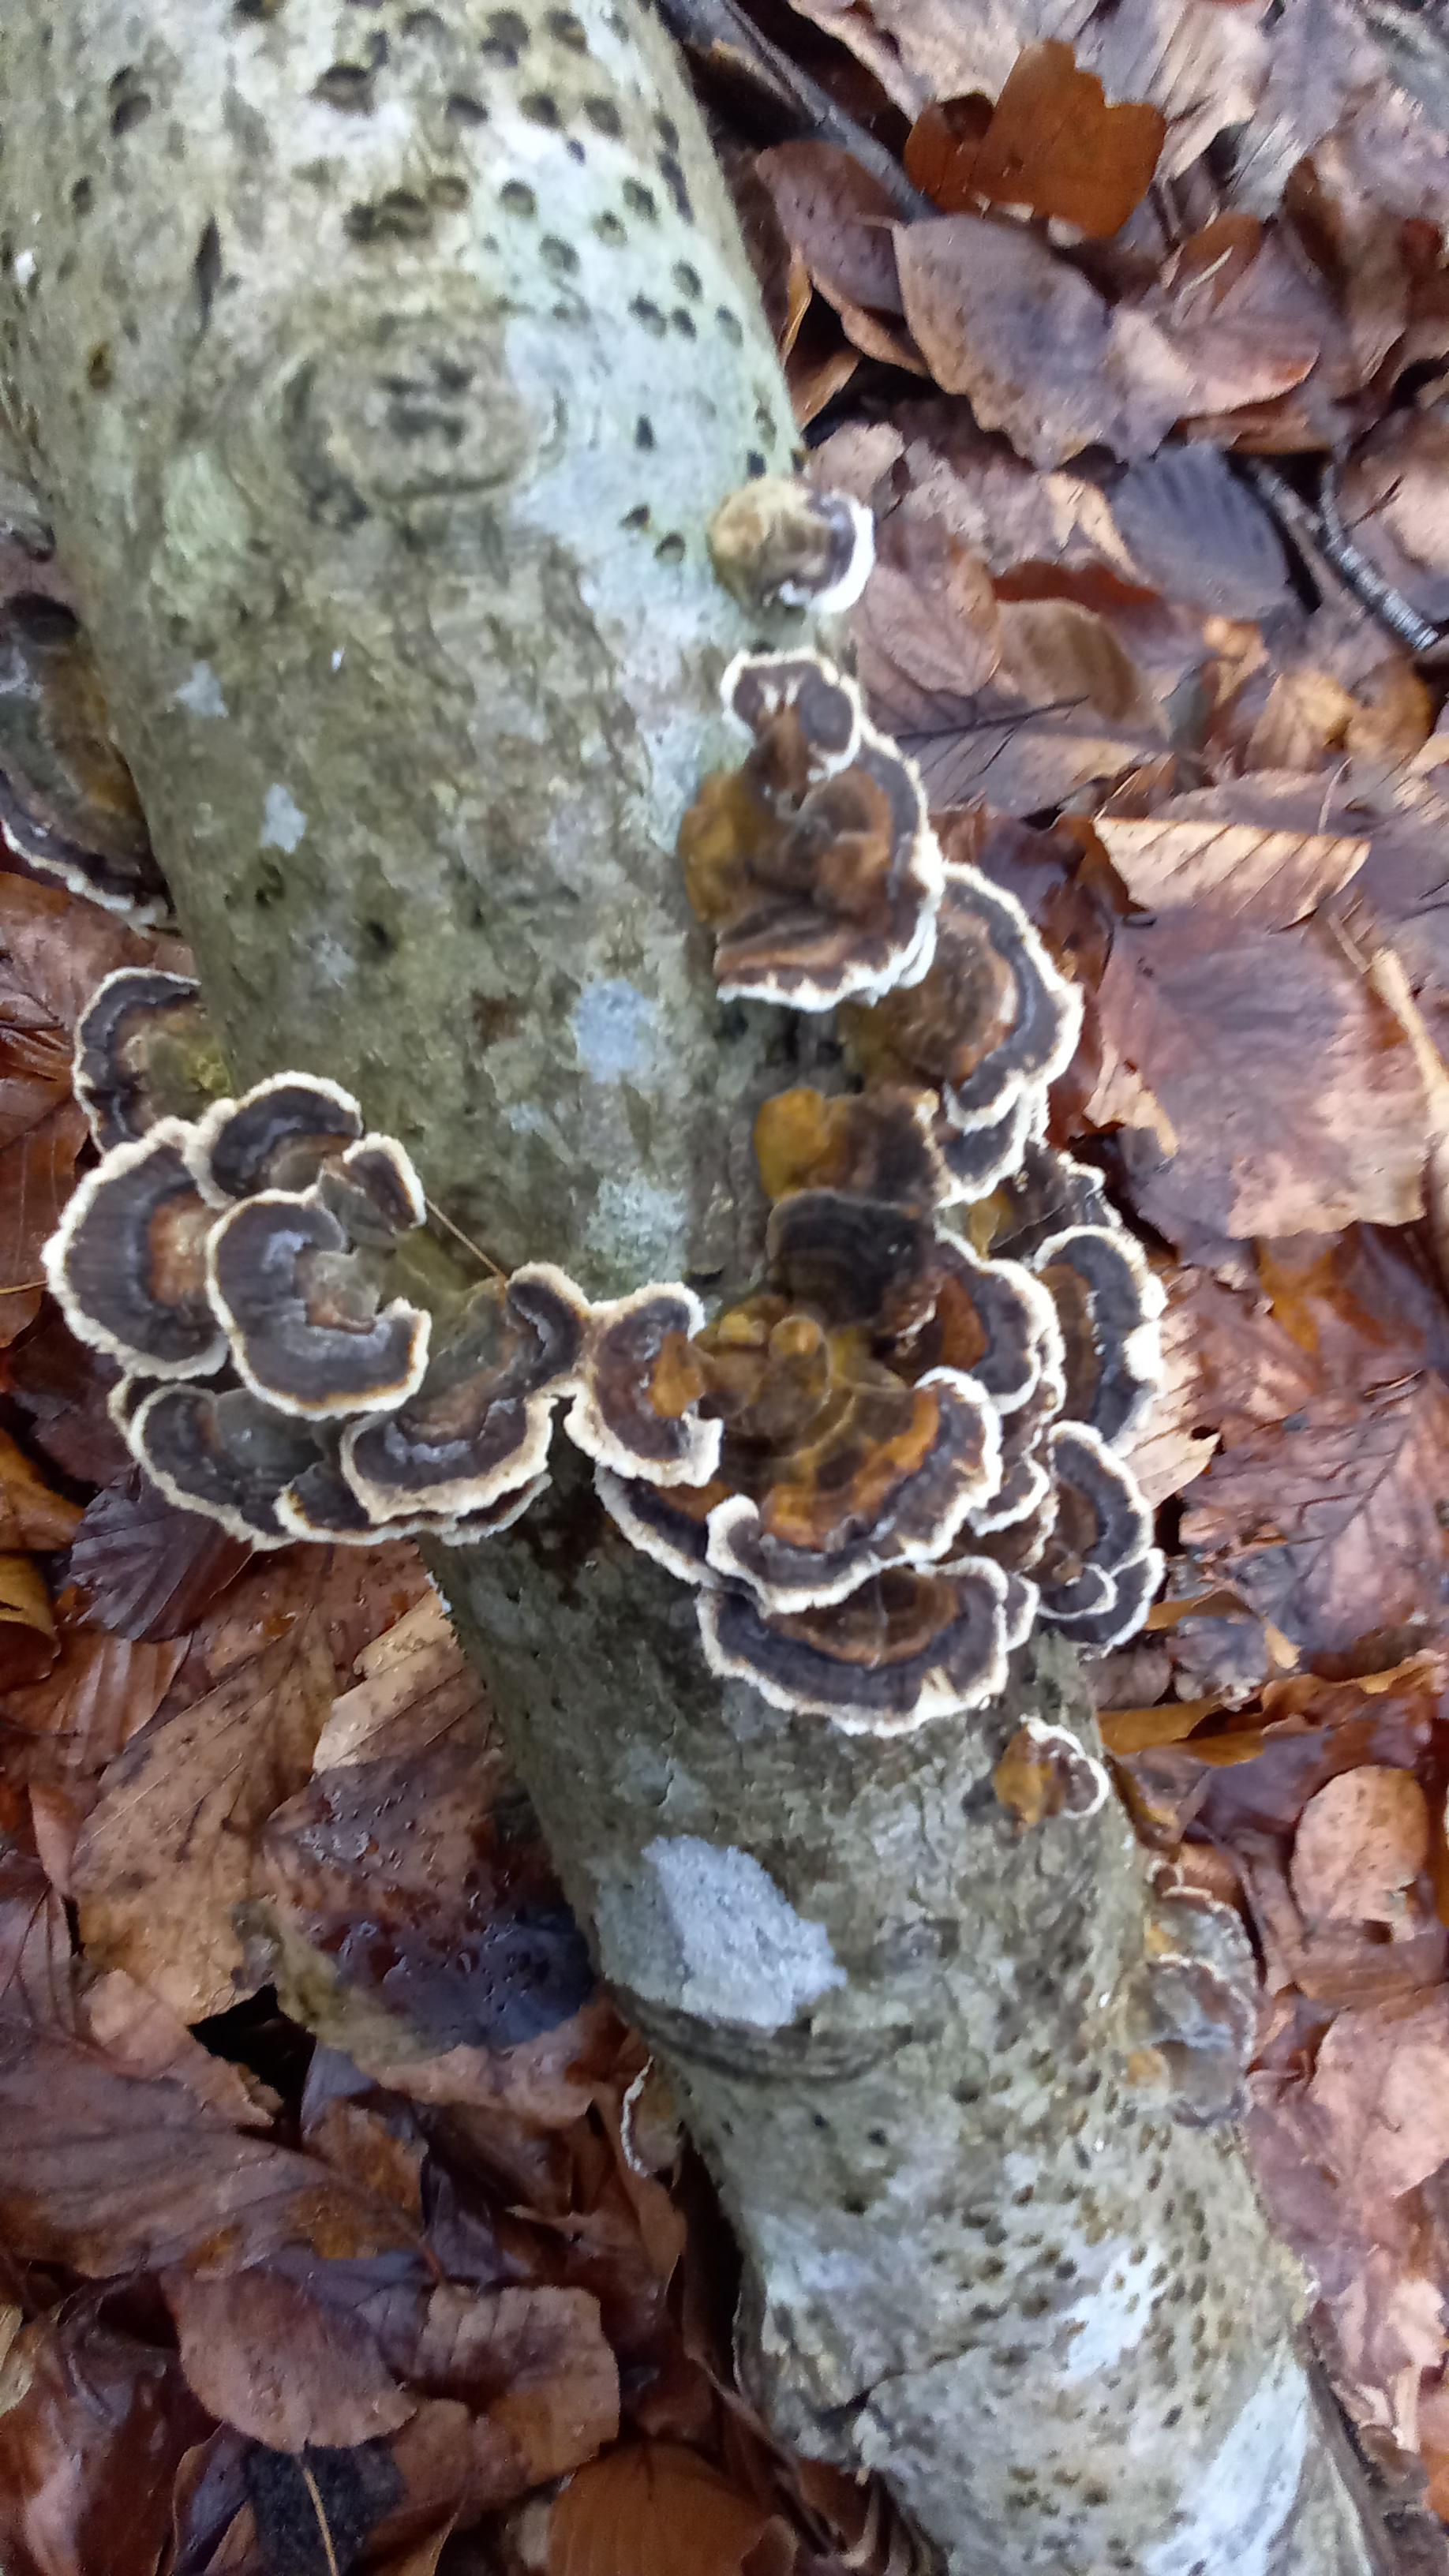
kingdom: Fungi
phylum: Basidiomycota
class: Agaricomycetes
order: Polyporales
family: Polyporaceae
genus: Trametes
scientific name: Trametes versicolor
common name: broget læderporesvamp
